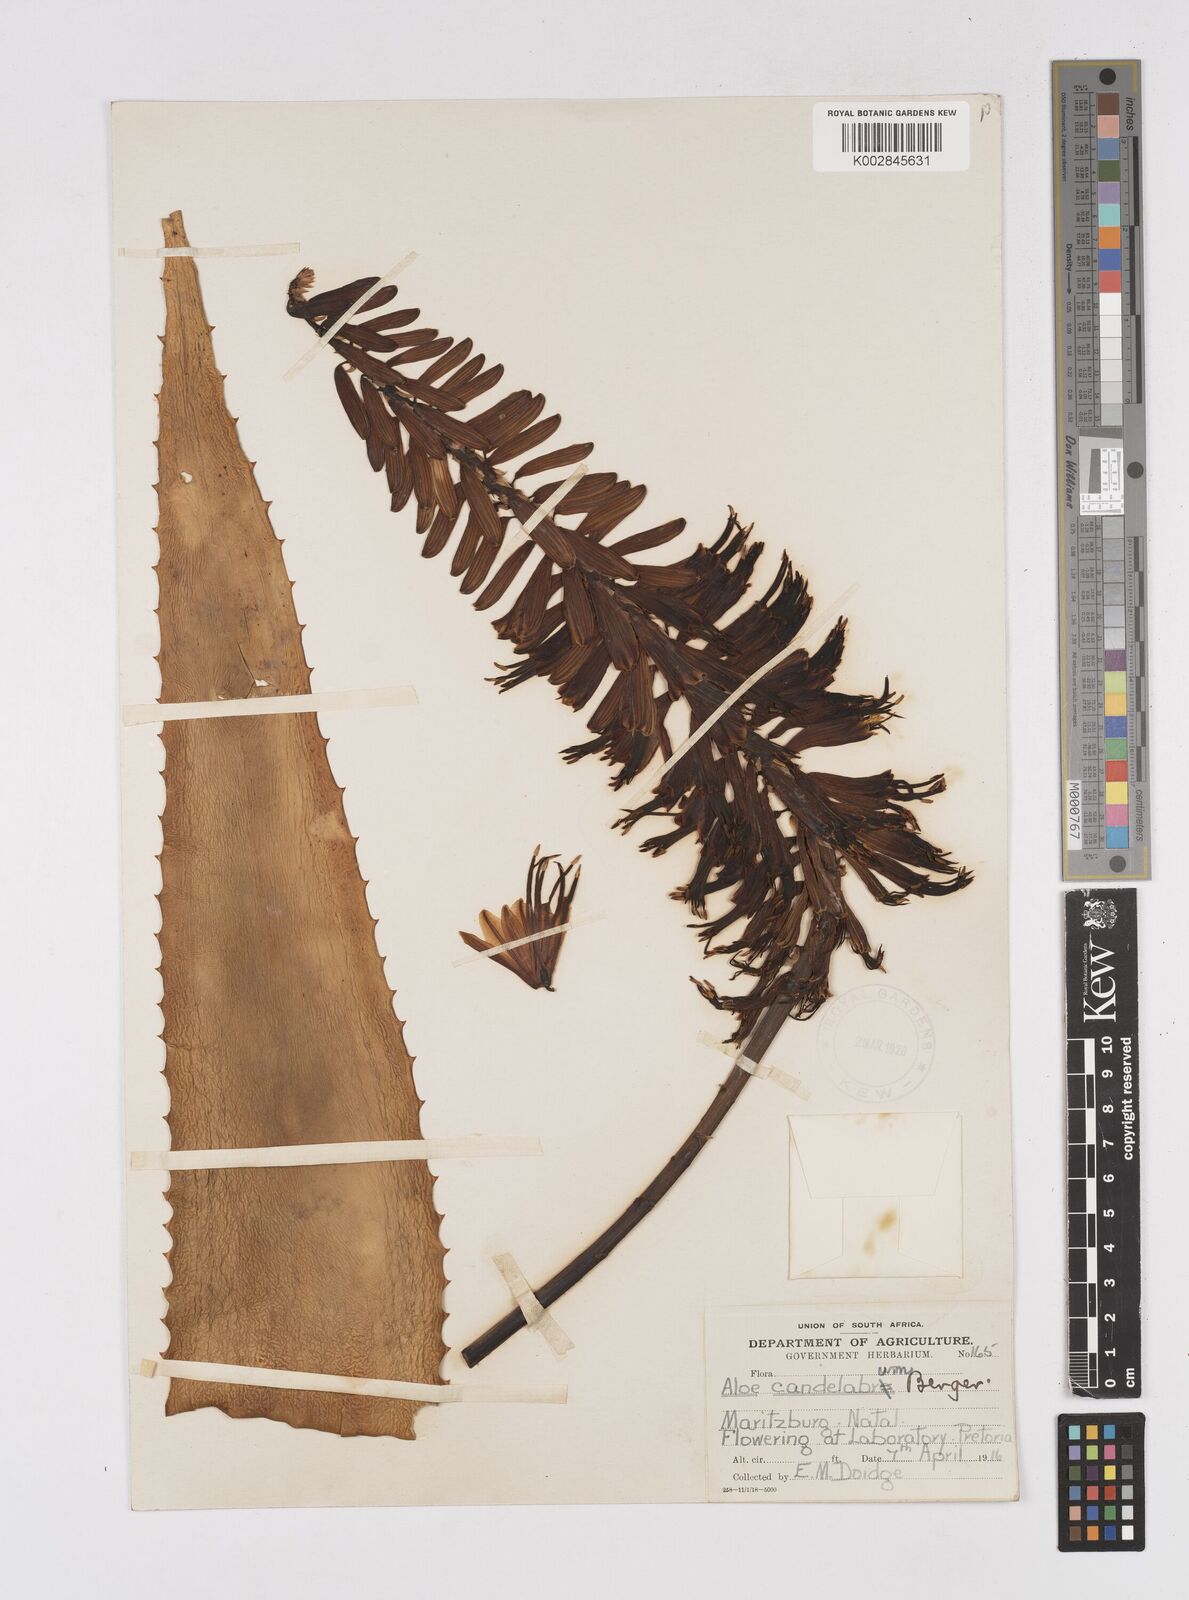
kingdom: Plantae
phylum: Tracheophyta
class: Liliopsida
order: Asparagales
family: Asphodelaceae
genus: Aloe
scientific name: Aloe candelabrum
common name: Candelabra aloe
